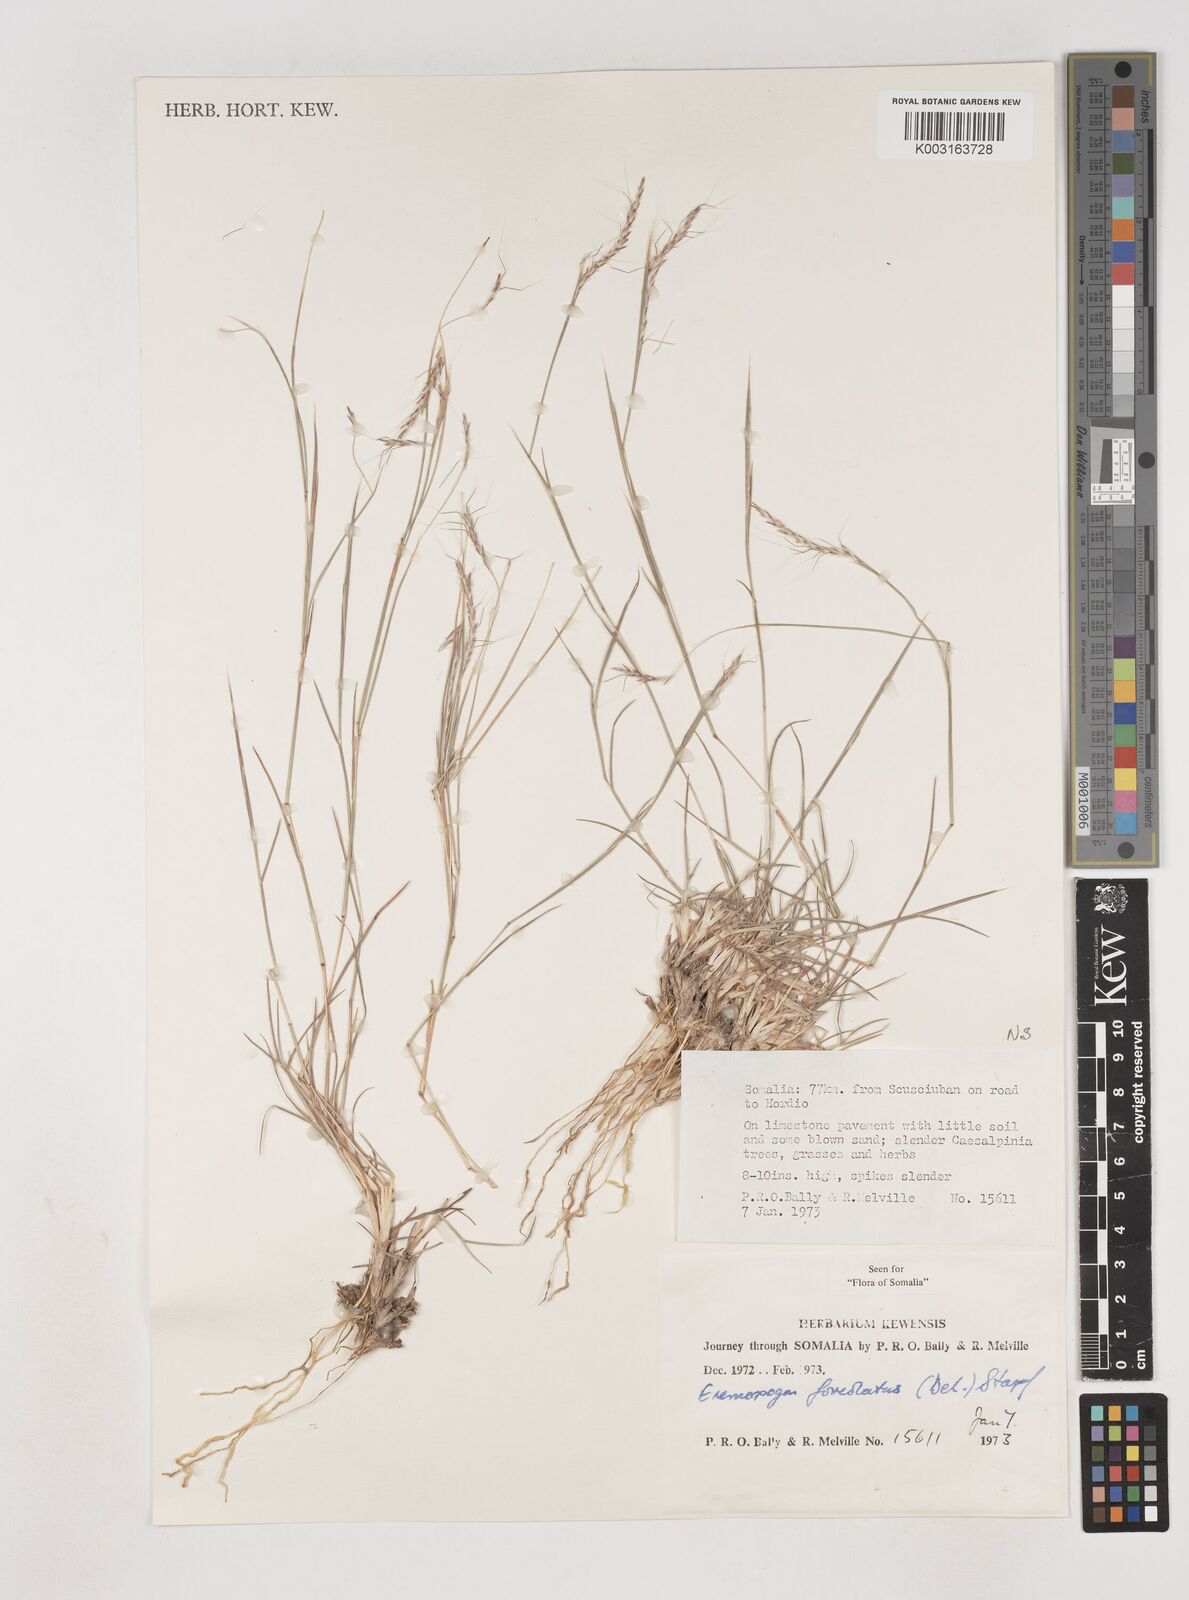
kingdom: Plantae
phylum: Tracheophyta
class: Liliopsida
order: Poales
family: Poaceae
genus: Dichanthium
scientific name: Dichanthium foveolatum
